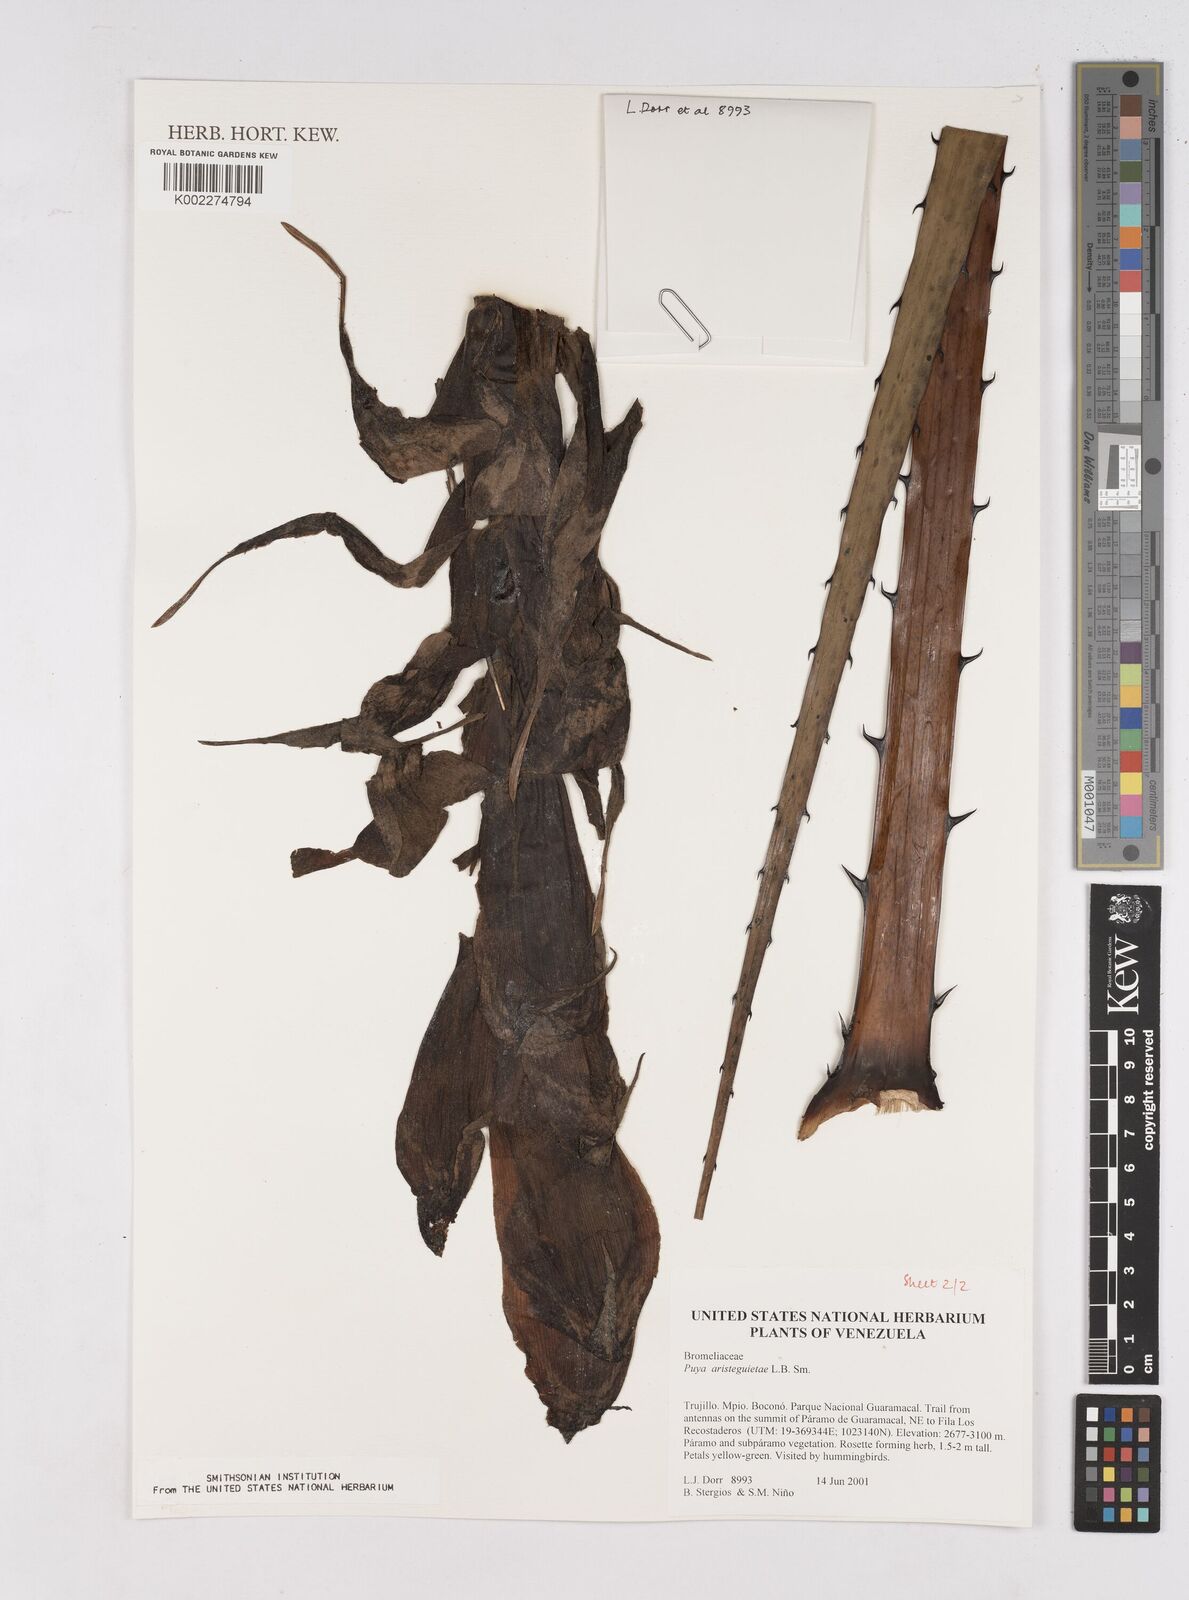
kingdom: Plantae
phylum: Tracheophyta
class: Liliopsida
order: Poales
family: Bromeliaceae
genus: Puya
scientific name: Puya aristeguietae
